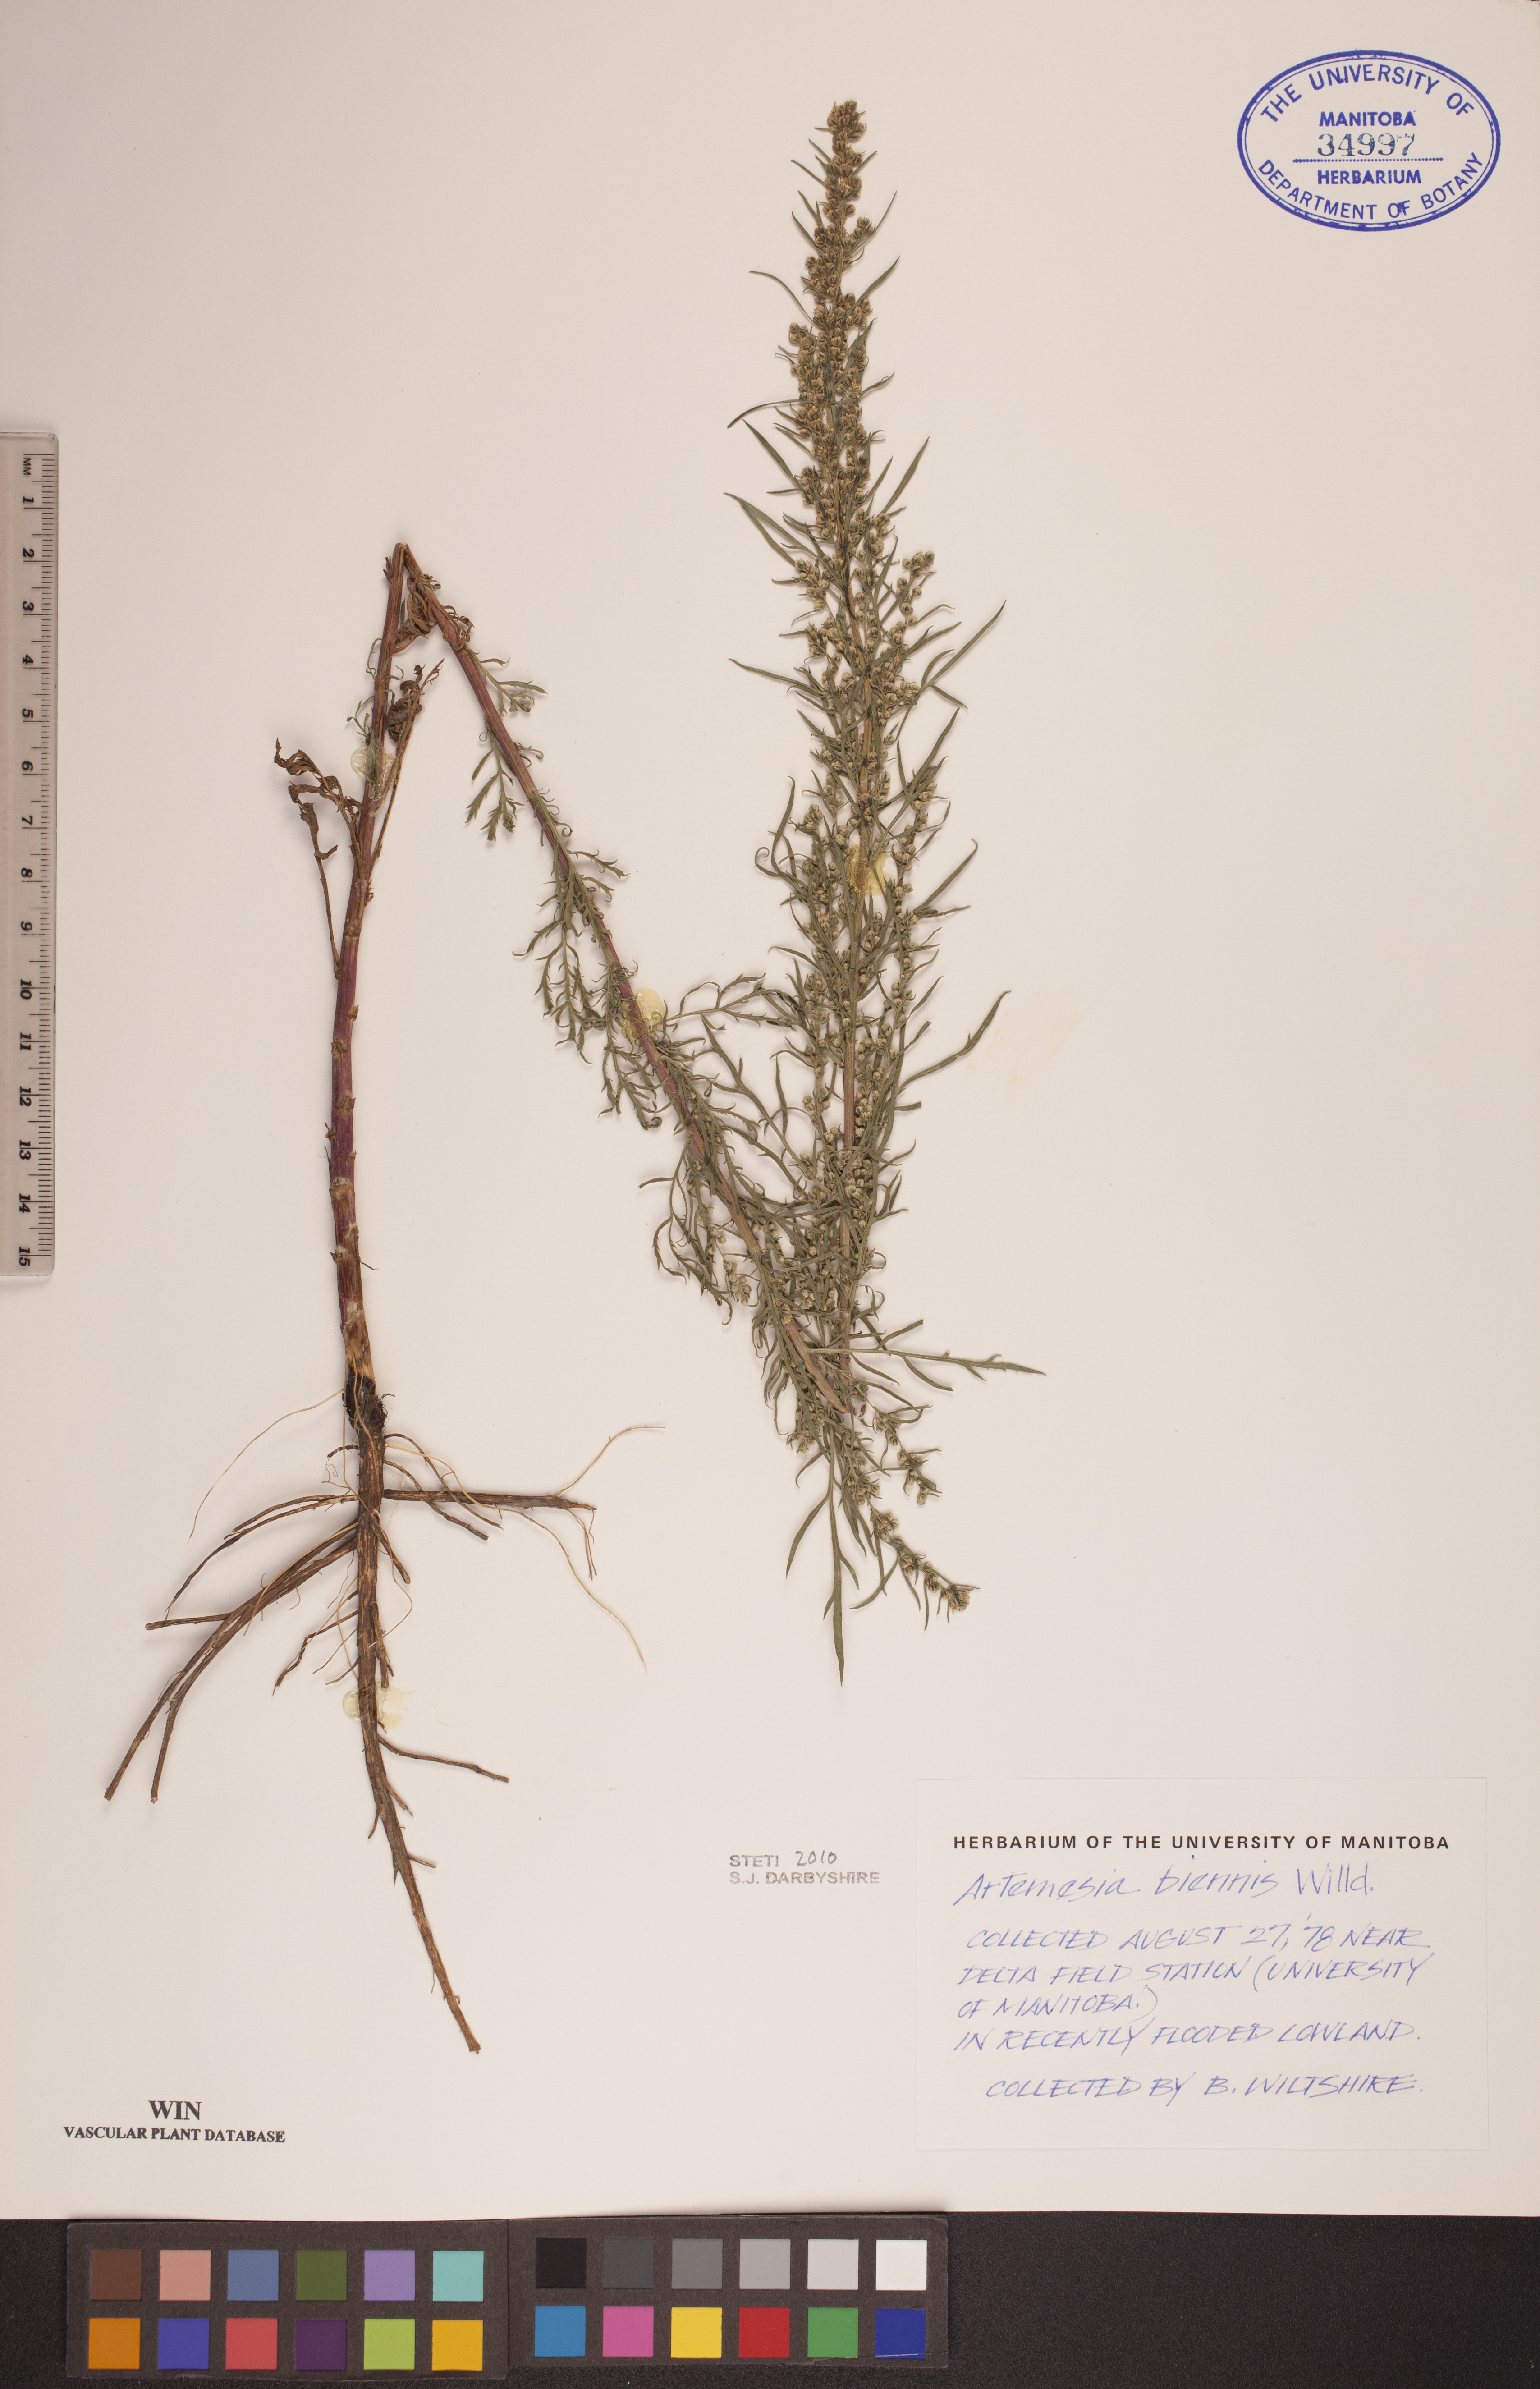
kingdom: Plantae
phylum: Tracheophyta
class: Magnoliopsida
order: Asterales
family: Asteraceae
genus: Artemisia
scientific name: Artemisia biennis
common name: Biennial wormwood
